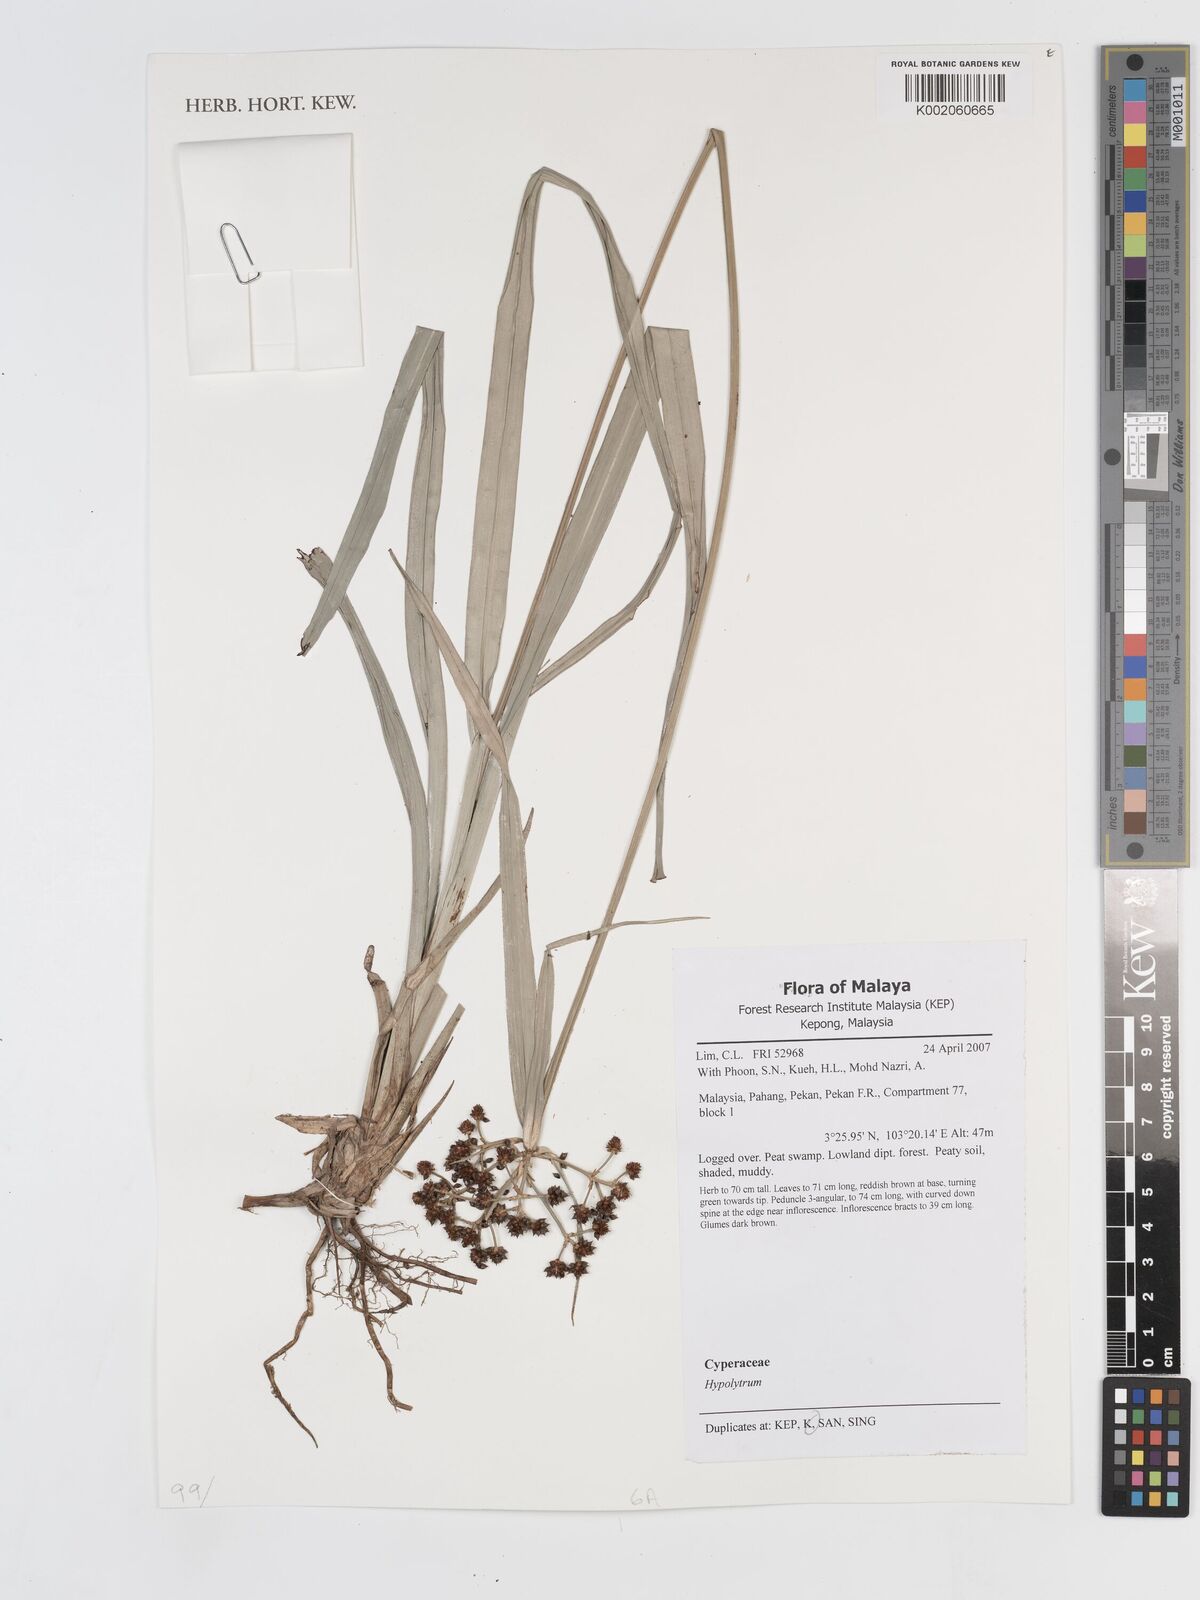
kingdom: Plantae
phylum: Tracheophyta
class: Liliopsida
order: Poales
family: Cyperaceae
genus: Hypolytrum
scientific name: Hypolytrum nemorum
